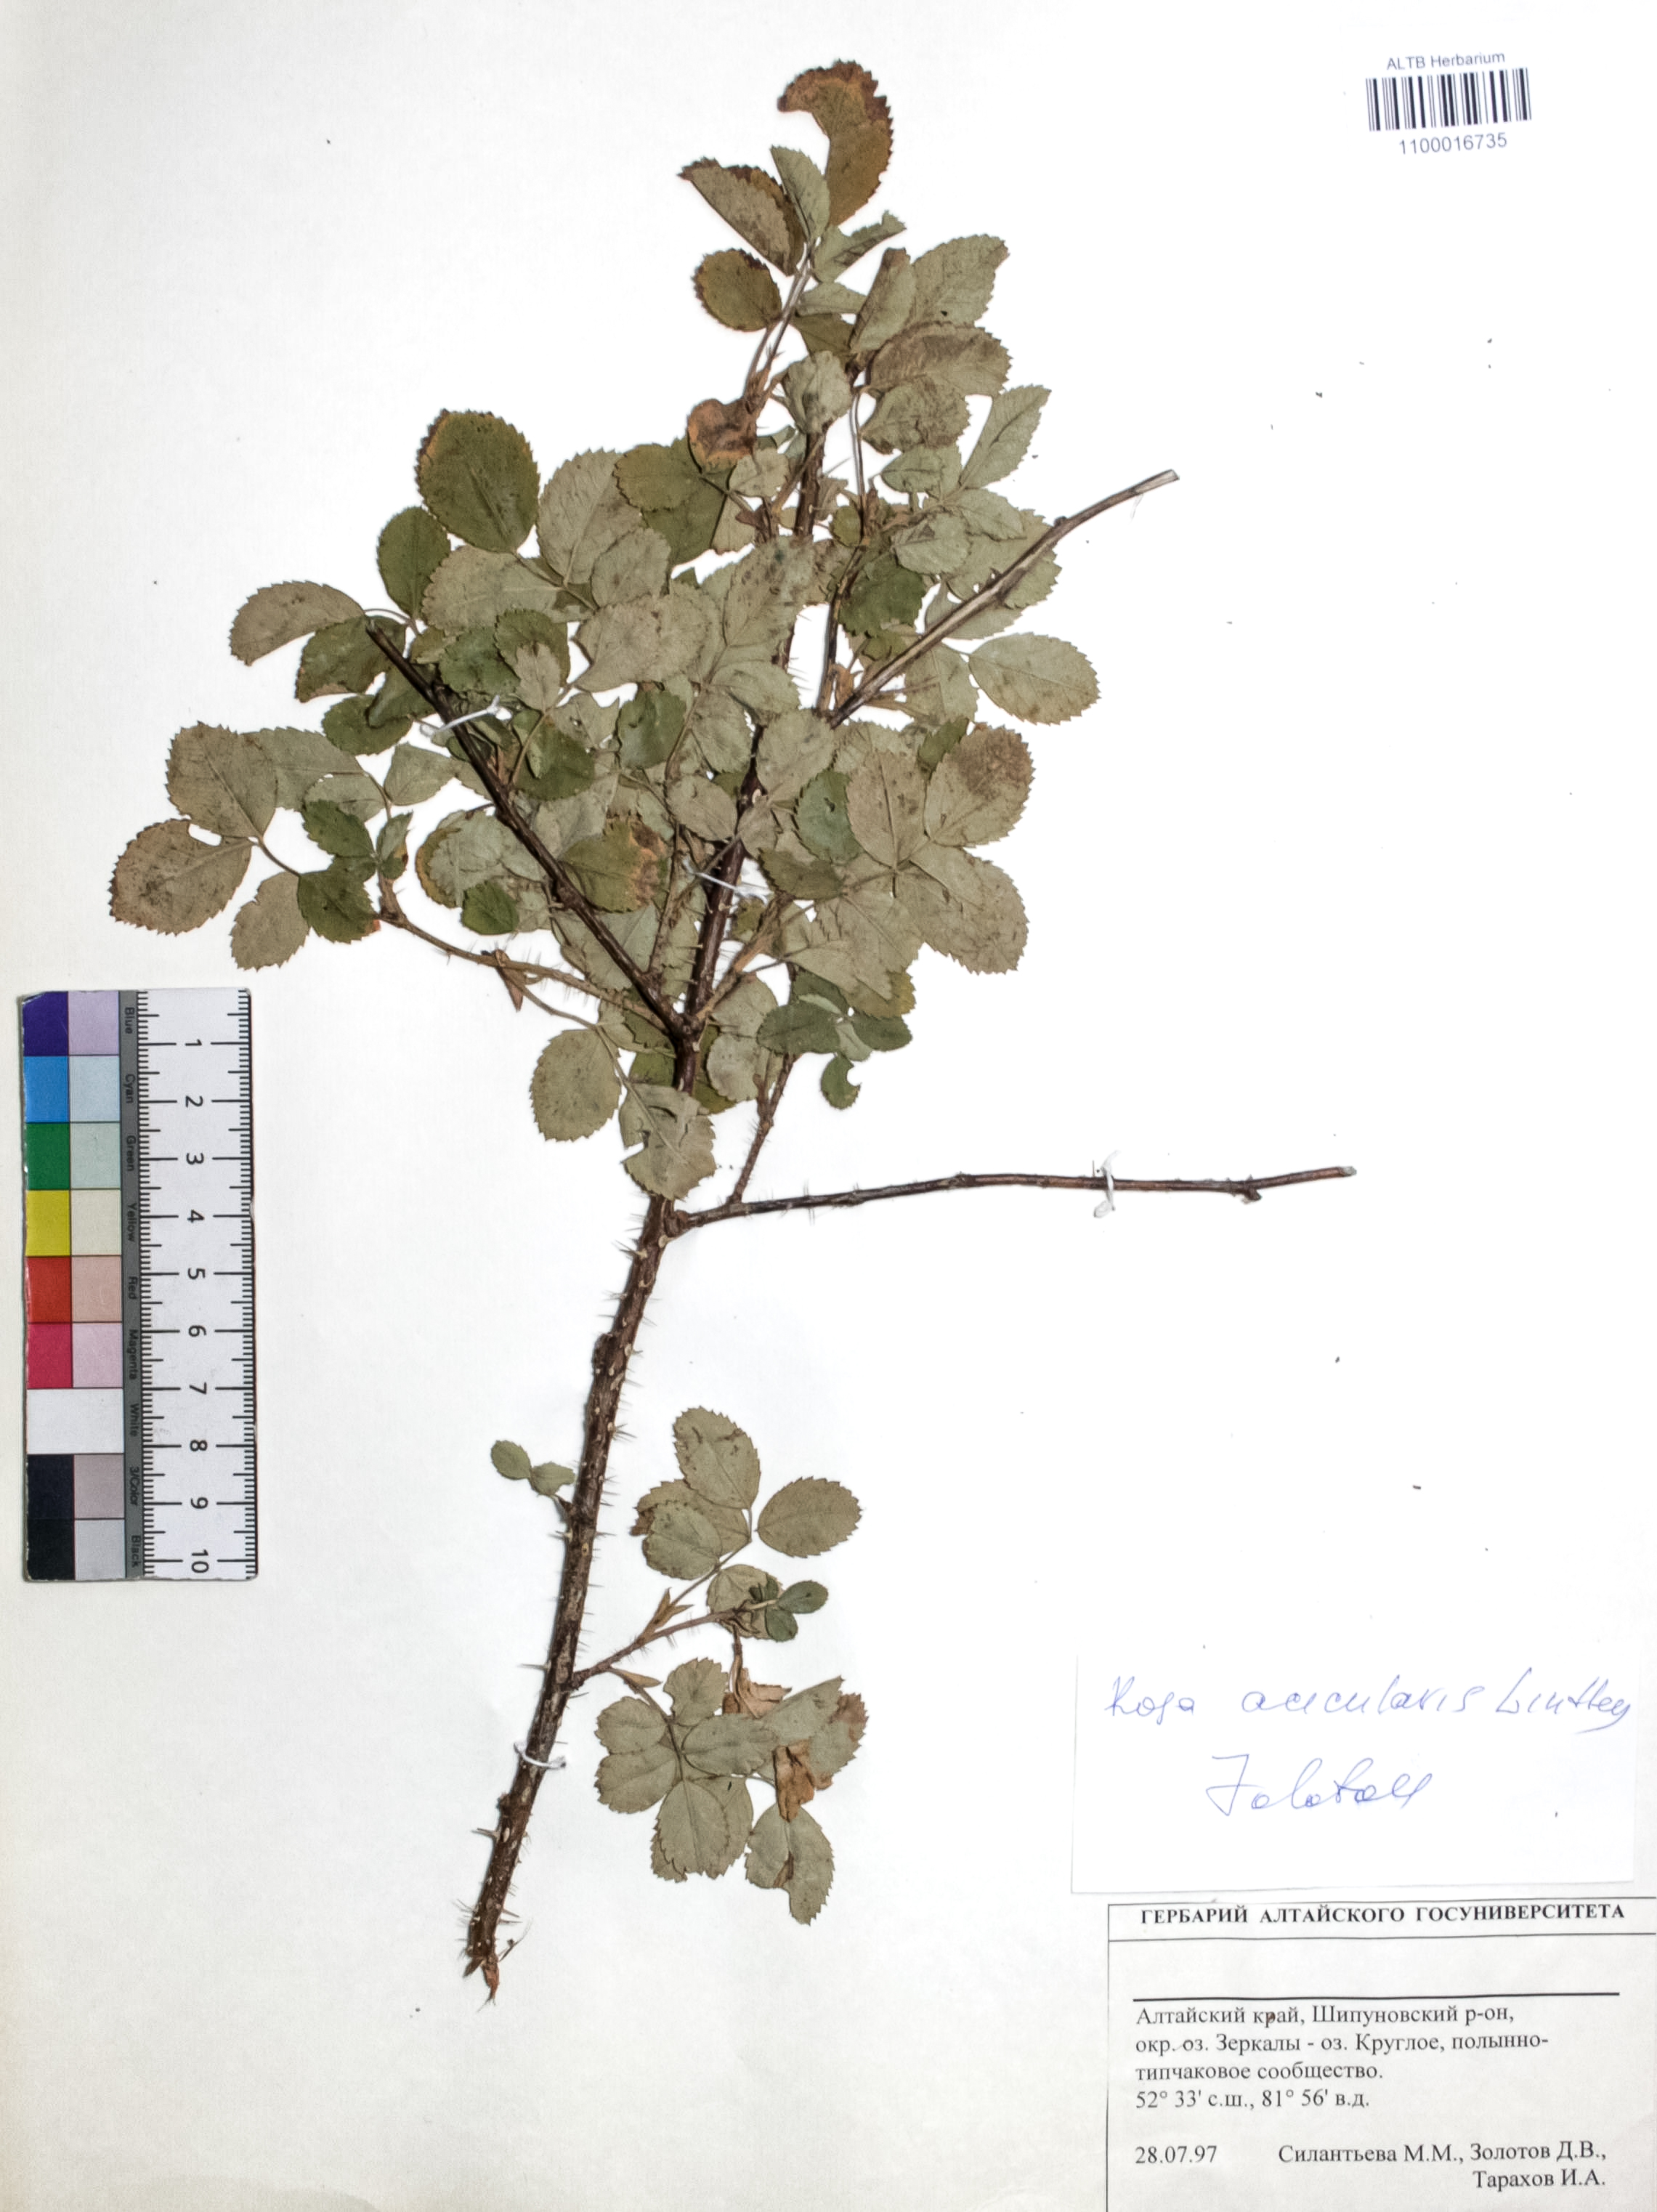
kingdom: Plantae
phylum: Tracheophyta
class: Magnoliopsida
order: Rosales
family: Rosaceae
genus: Rosa
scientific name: Rosa acicularis
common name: Prickly rose
